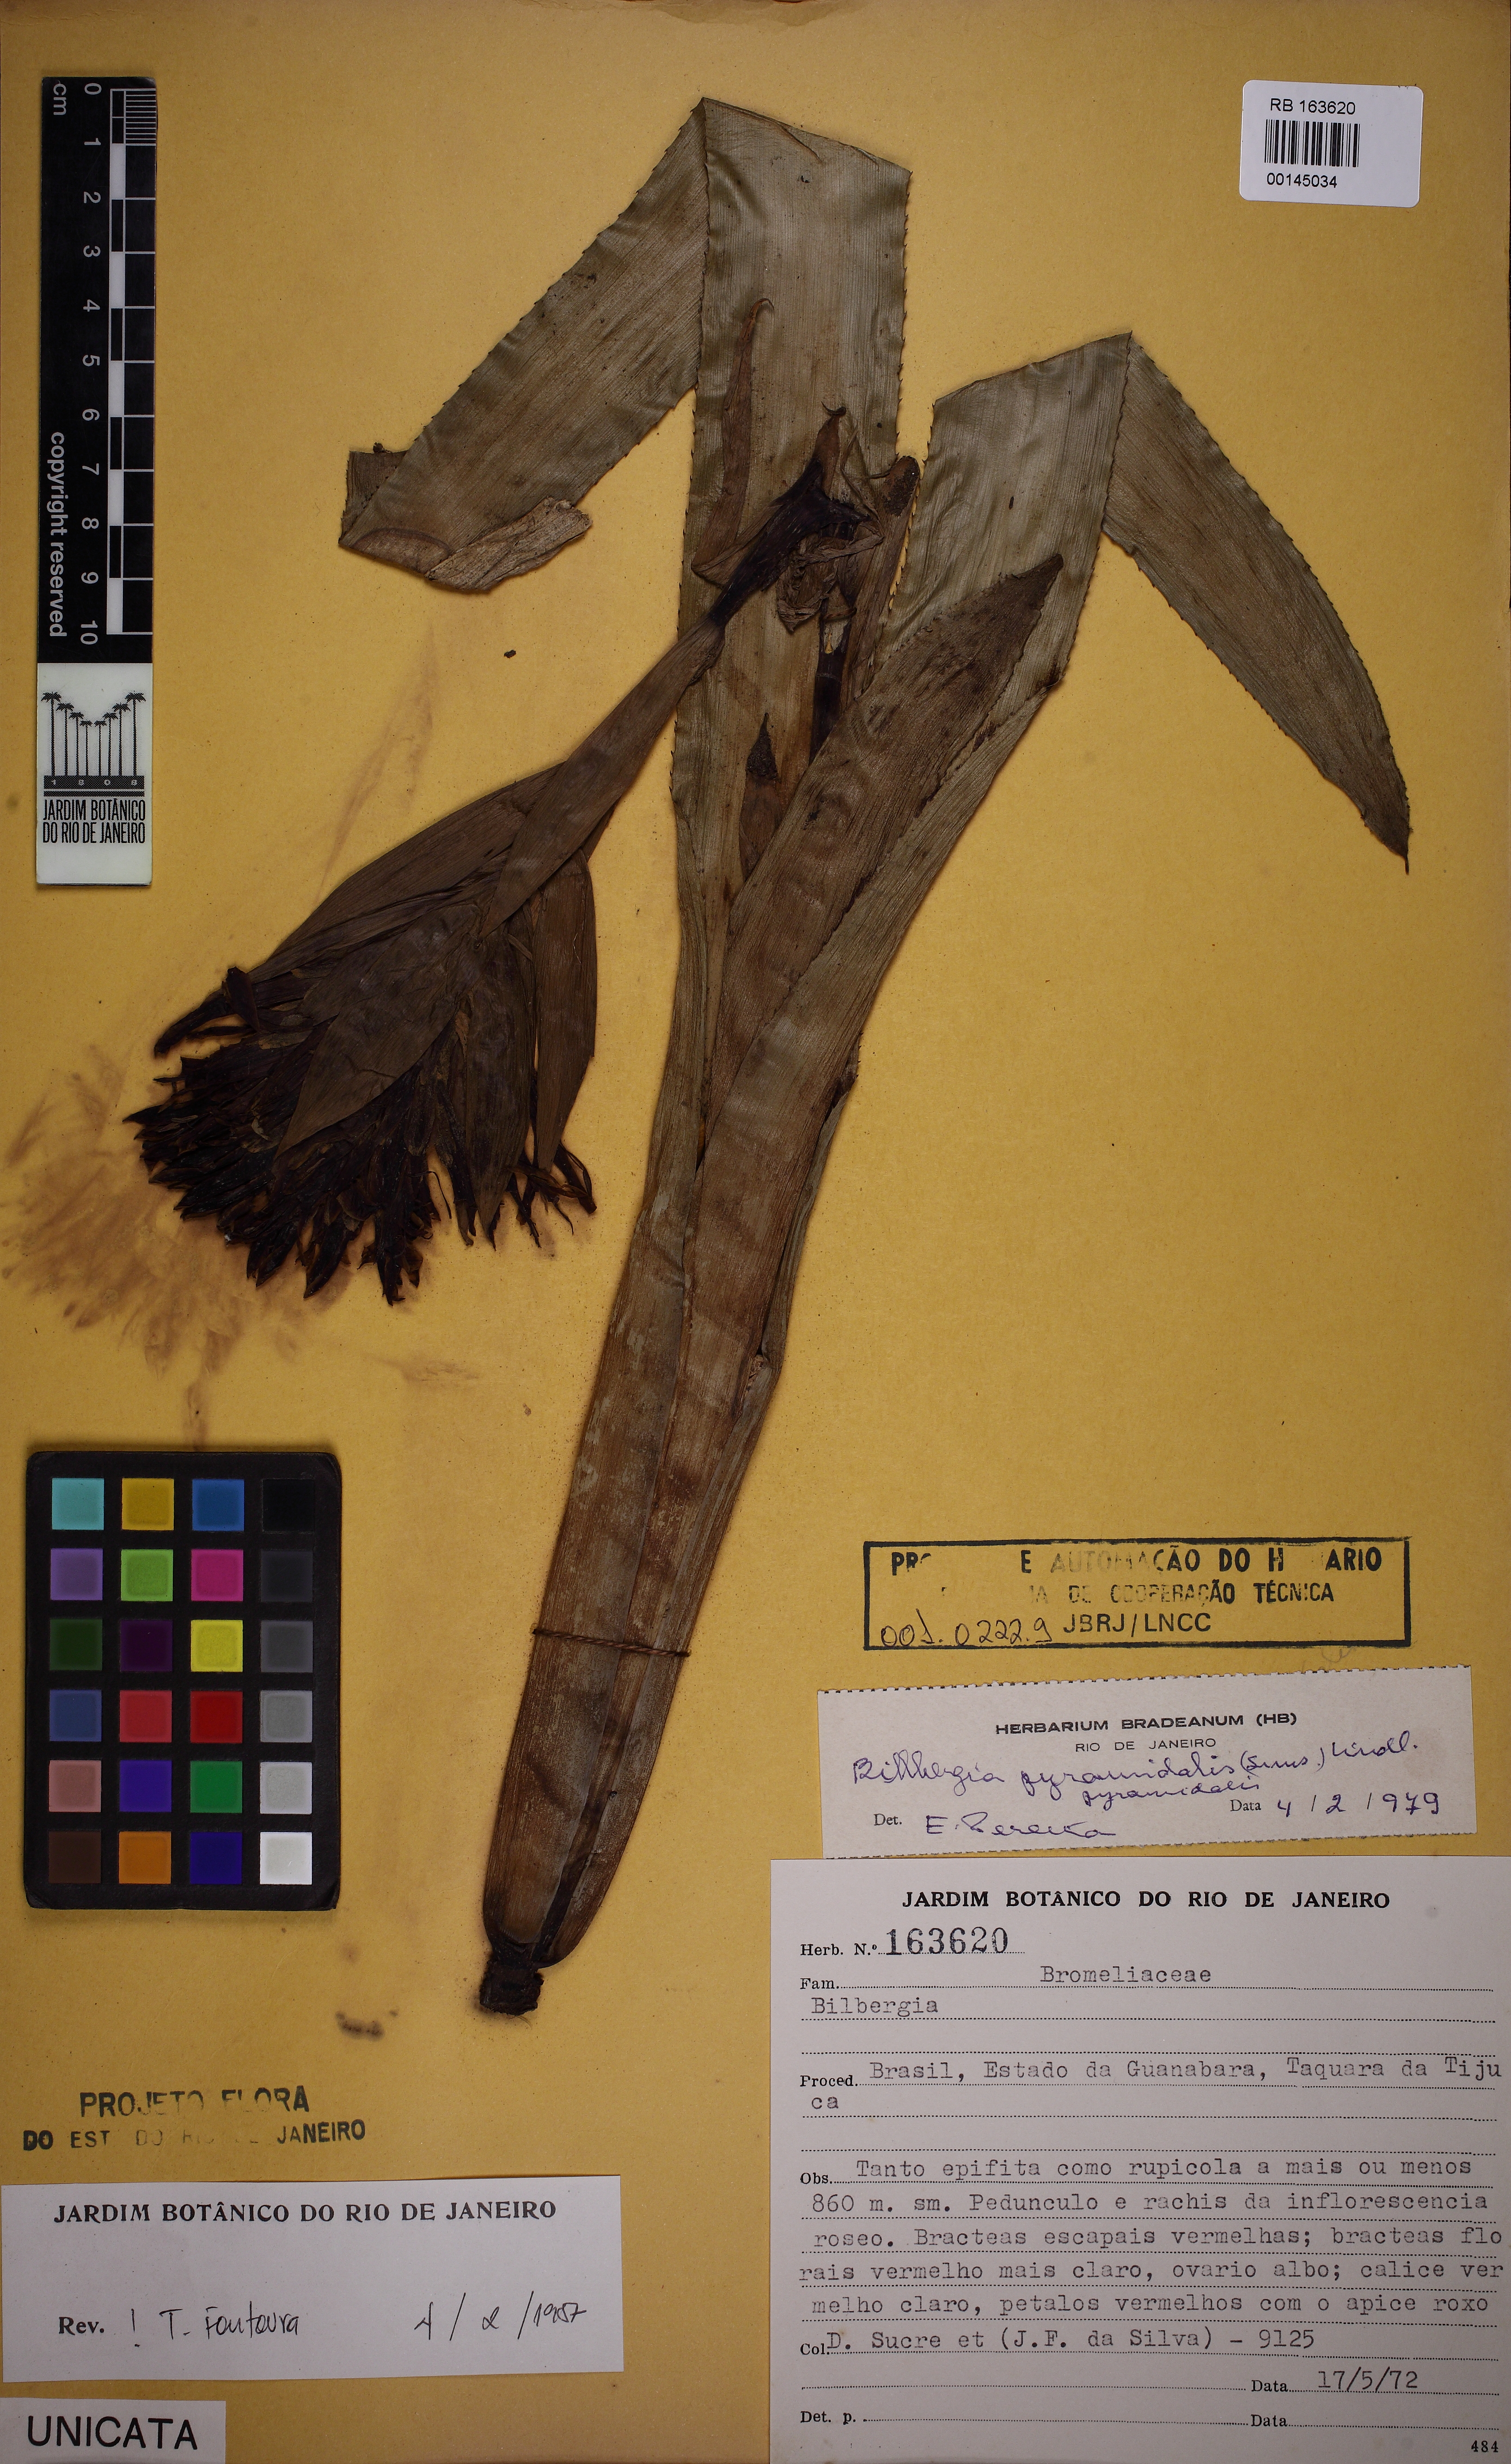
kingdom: Plantae
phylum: Tracheophyta
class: Liliopsida
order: Poales
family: Bromeliaceae
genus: Billbergia
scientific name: Billbergia pyramidalis
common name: Foolproofplant
